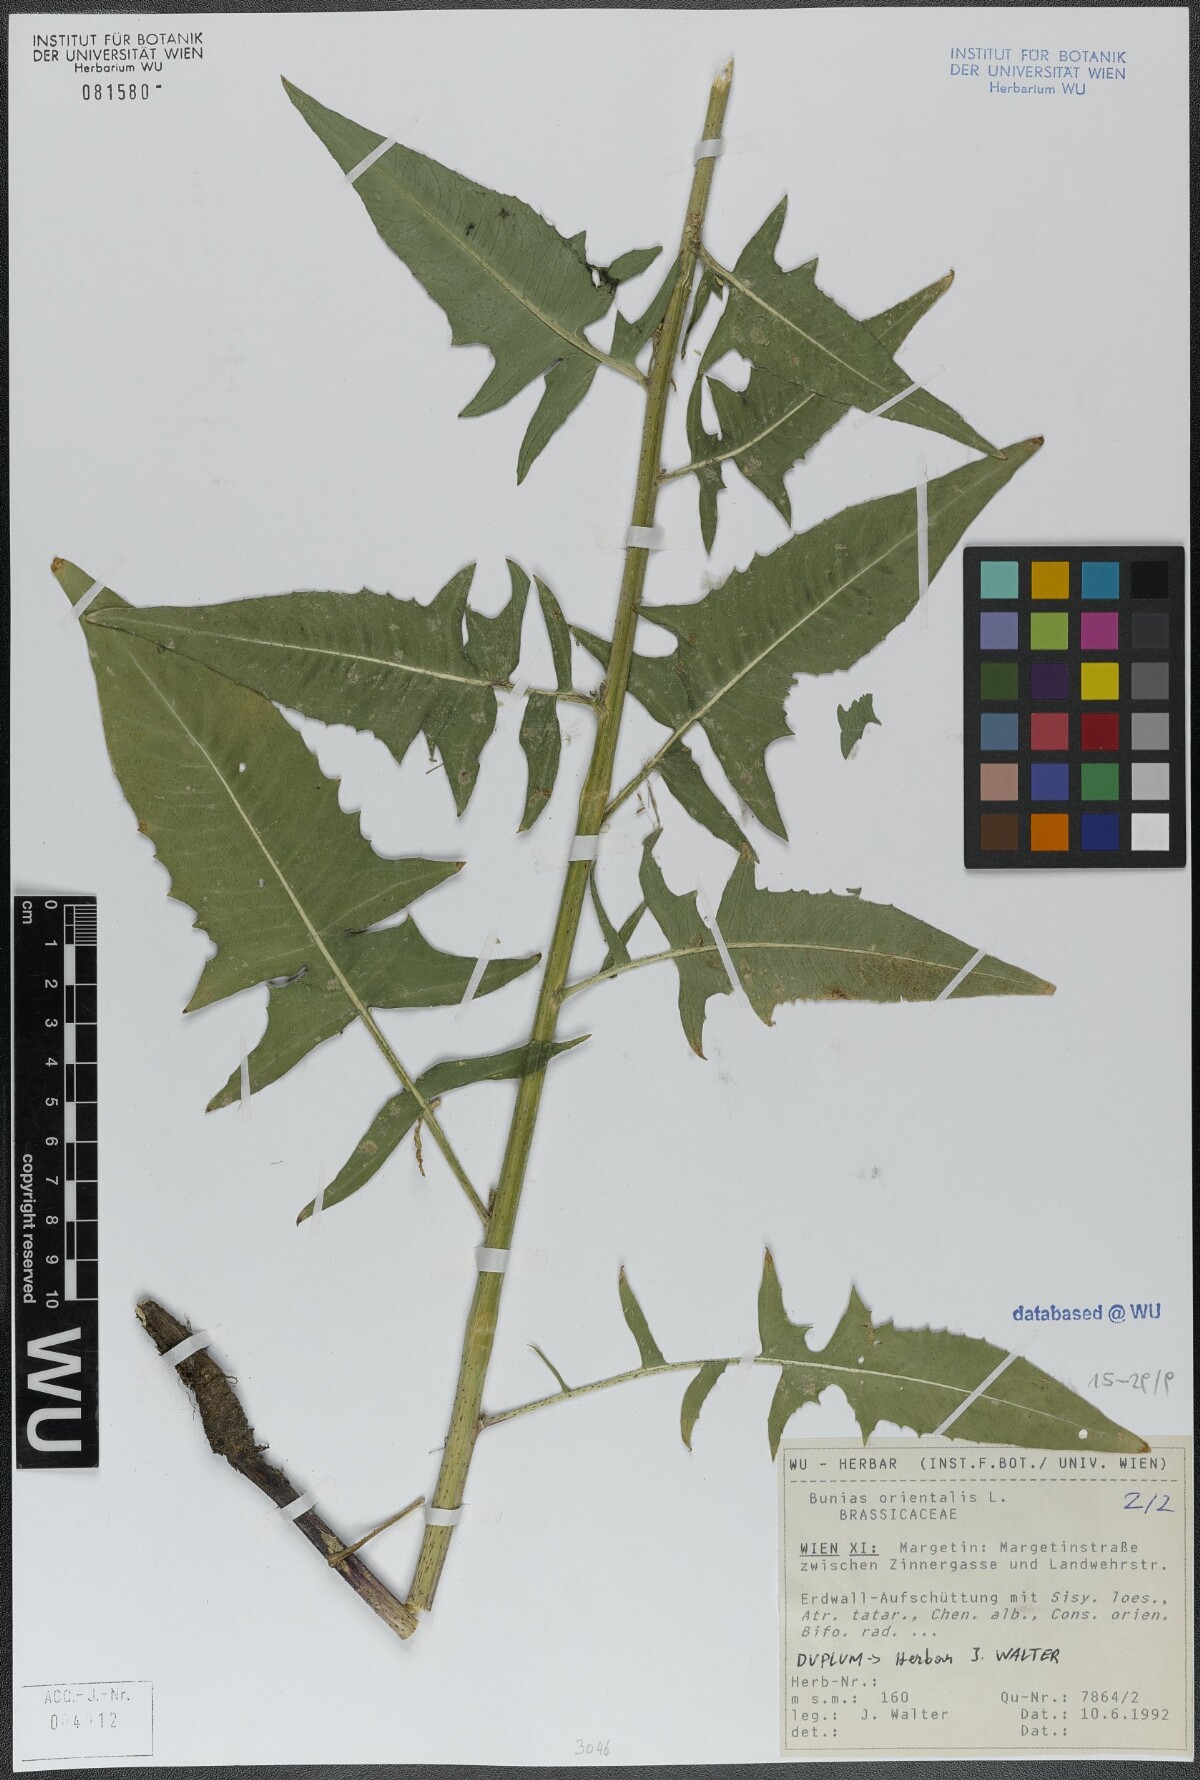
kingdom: Plantae
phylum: Tracheophyta
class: Magnoliopsida
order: Brassicales
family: Brassicaceae
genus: Bunias
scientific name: Bunias orientalis
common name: Warty-cabbage
